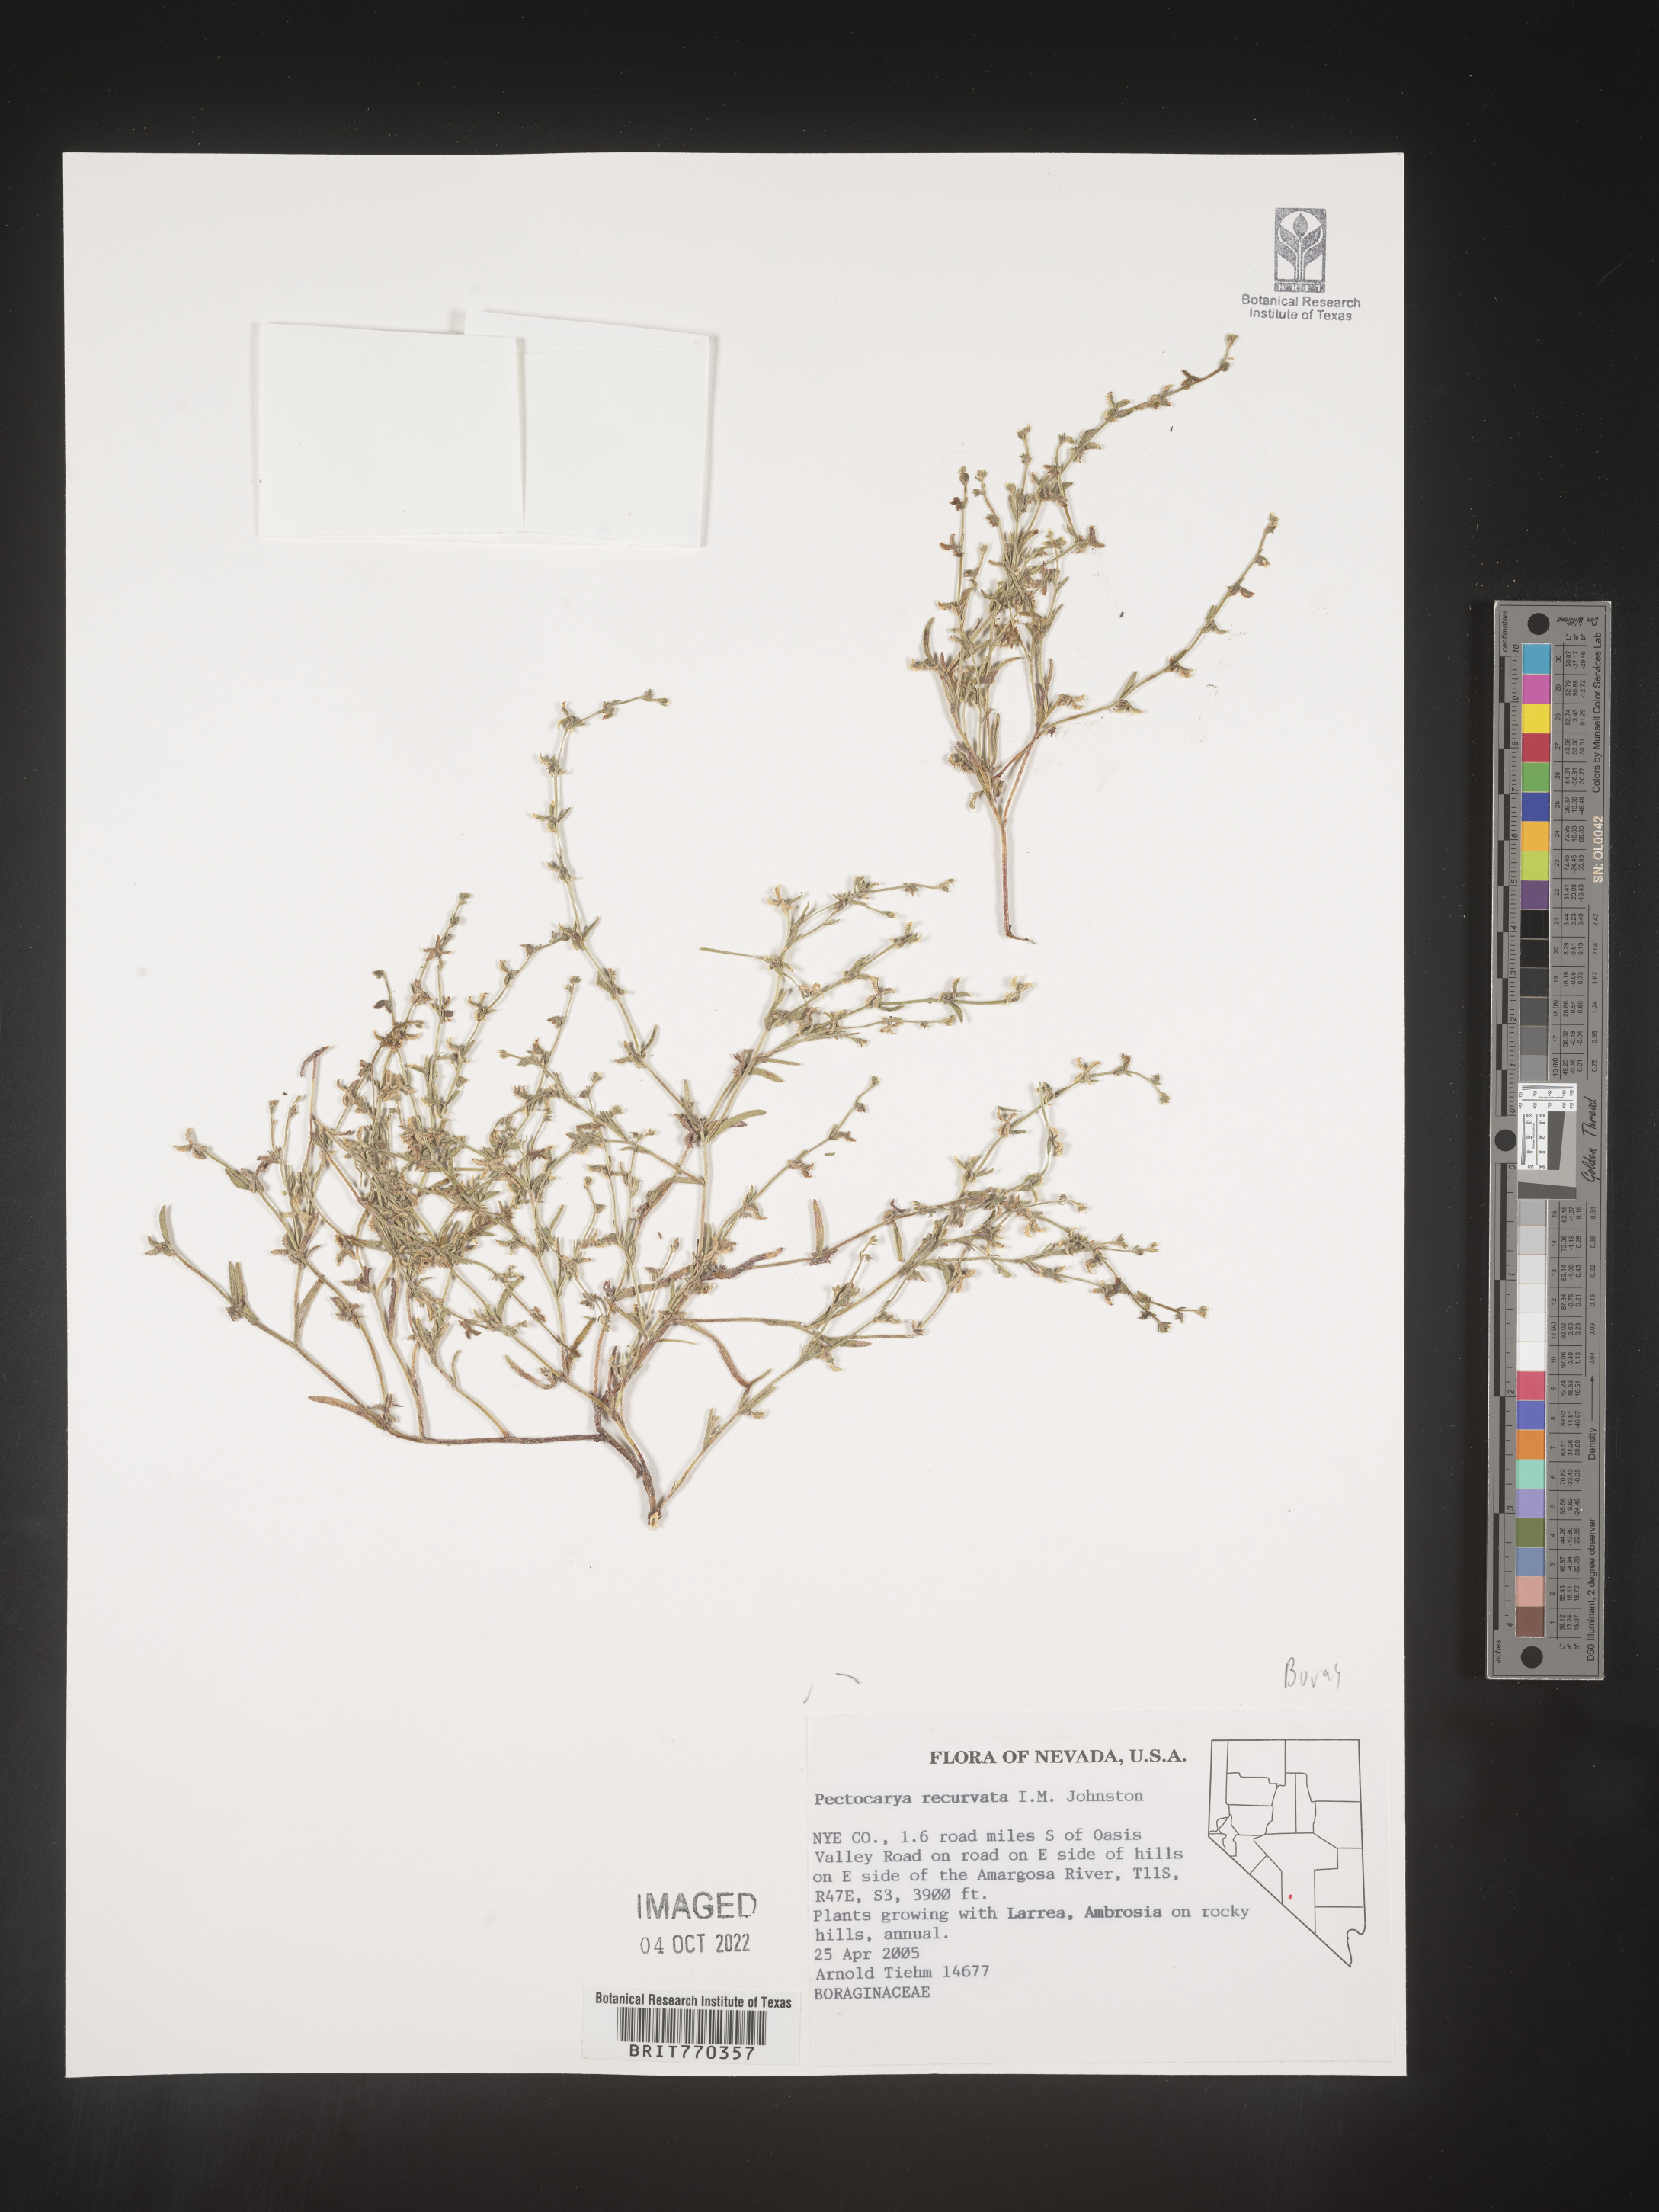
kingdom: Plantae
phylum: Tracheophyta
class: Magnoliopsida
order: Boraginales
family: Boraginaceae
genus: Pectocarya
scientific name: Pectocarya
